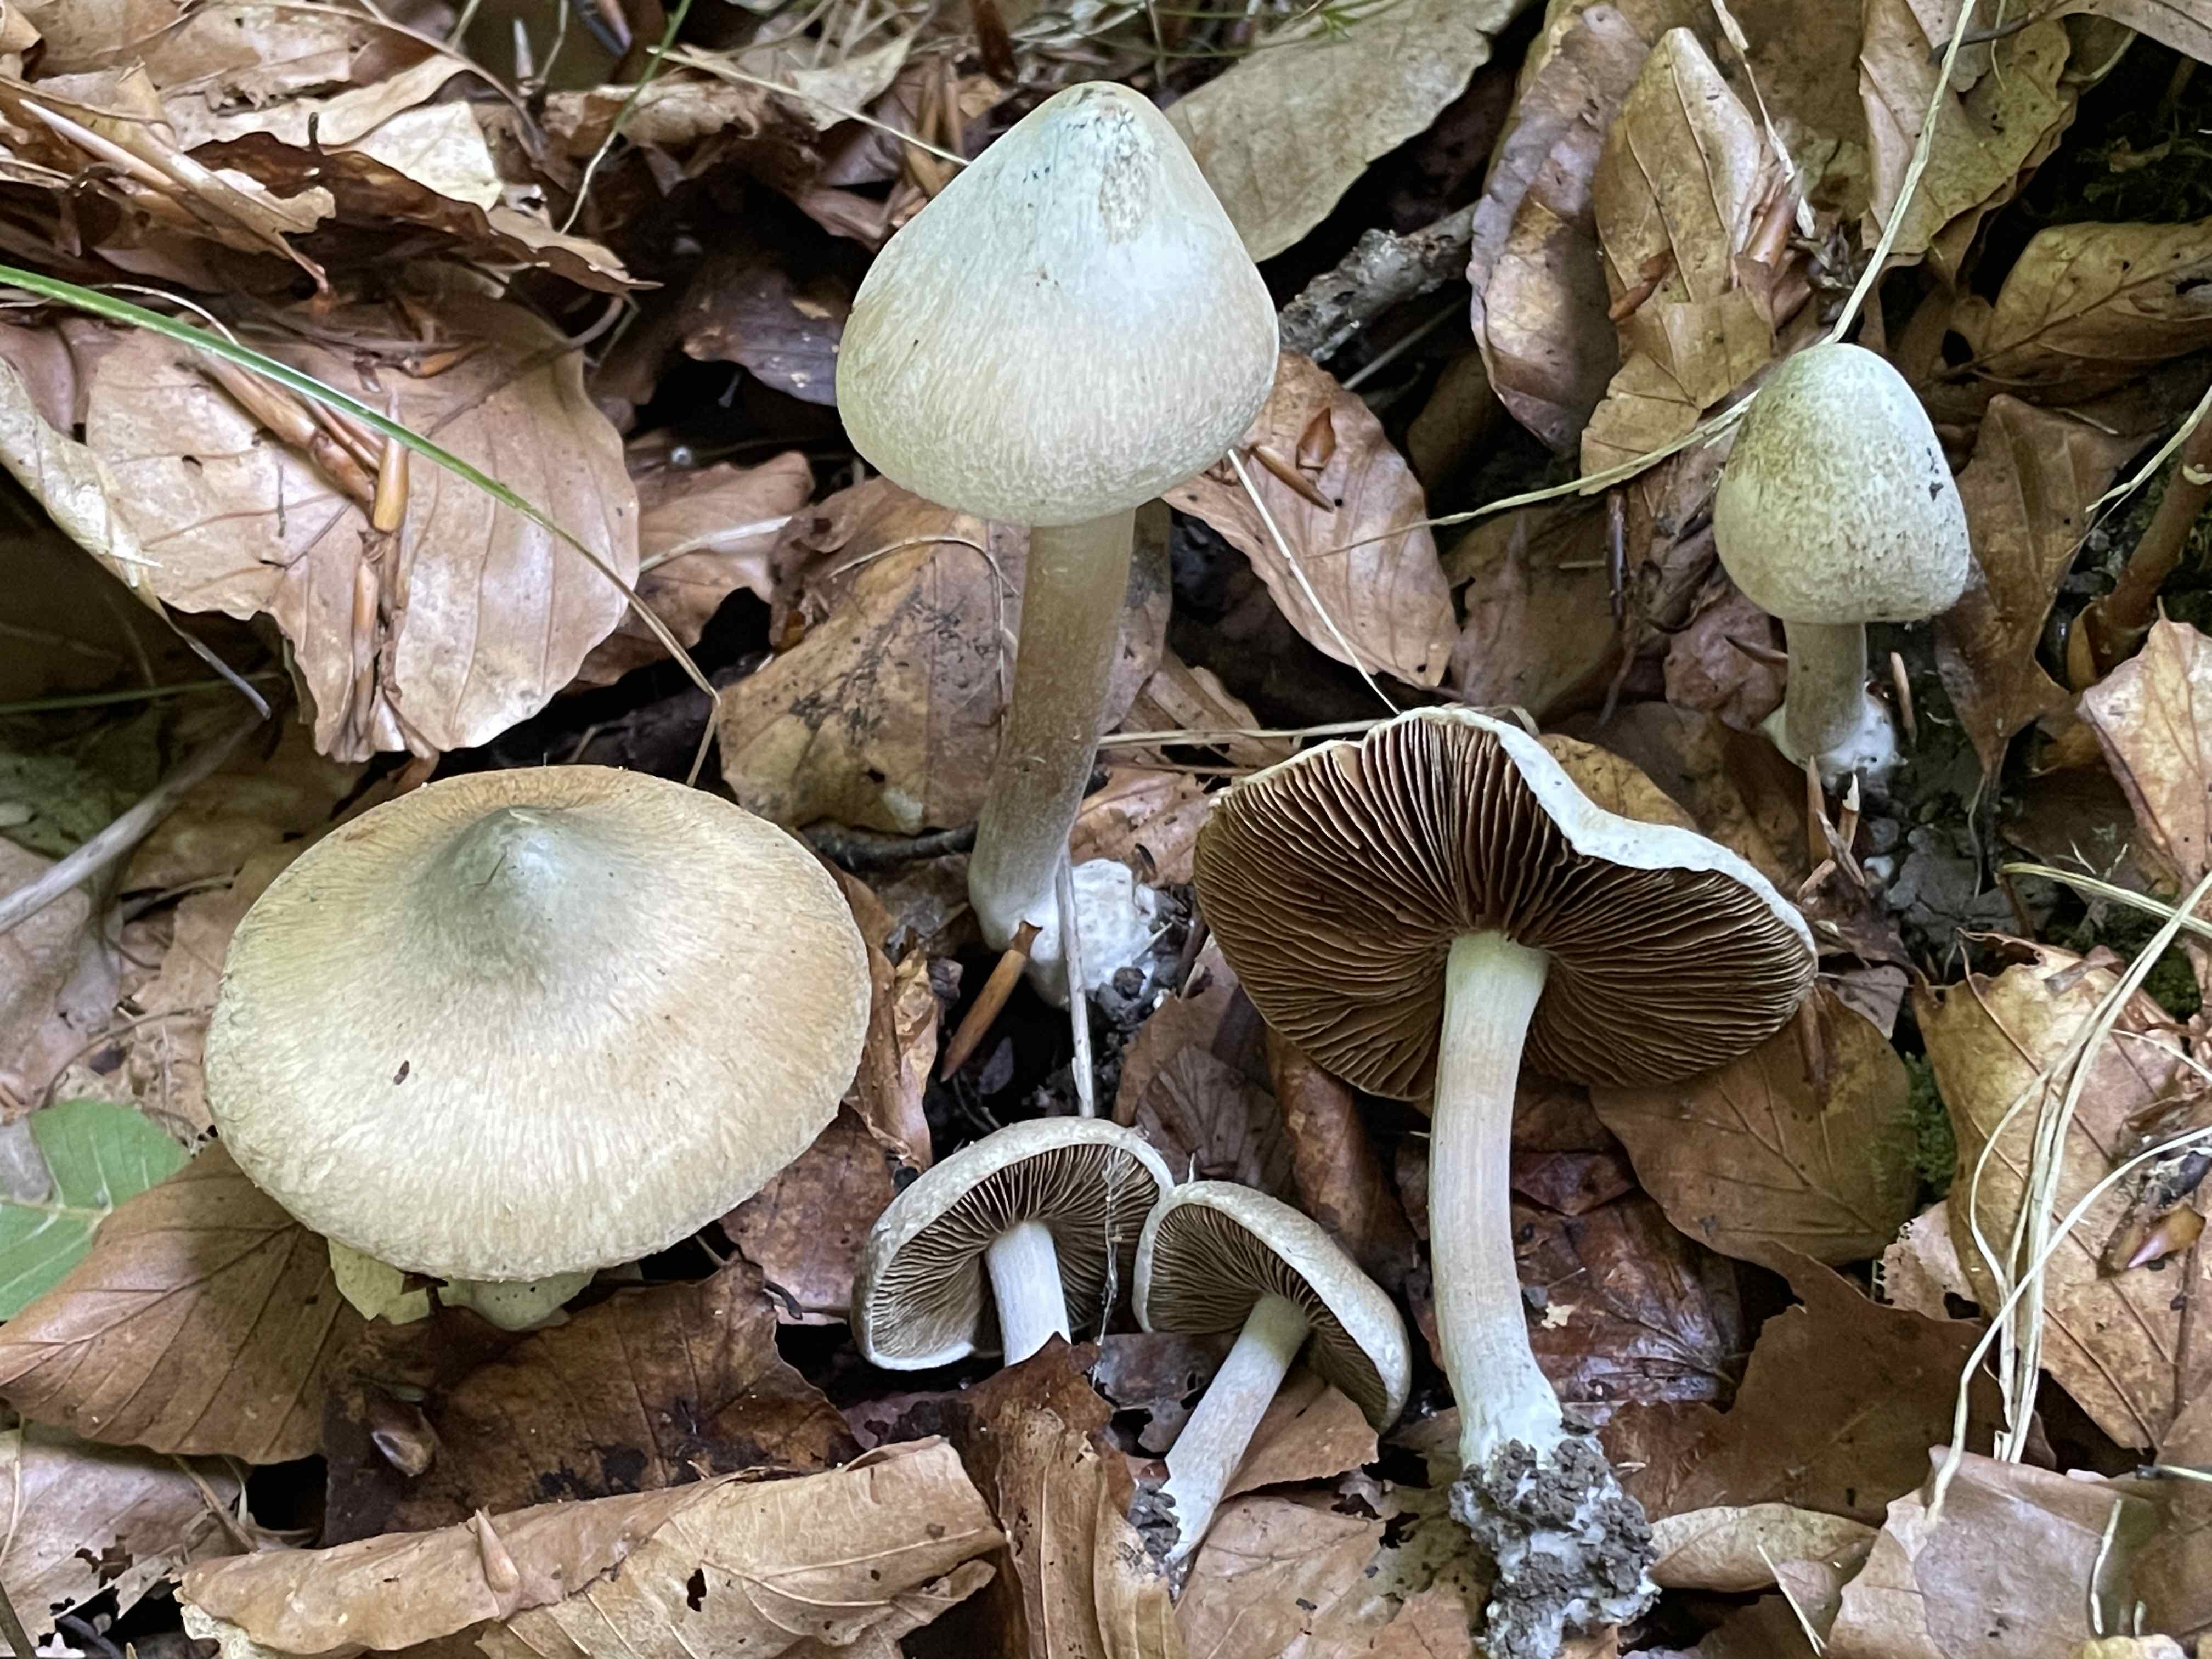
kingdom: Fungi
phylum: Basidiomycota
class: Agaricomycetes
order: Agaricales
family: Inocybaceae
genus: Inocybe
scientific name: Inocybe corydalina
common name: grønpuklet trævlhat
